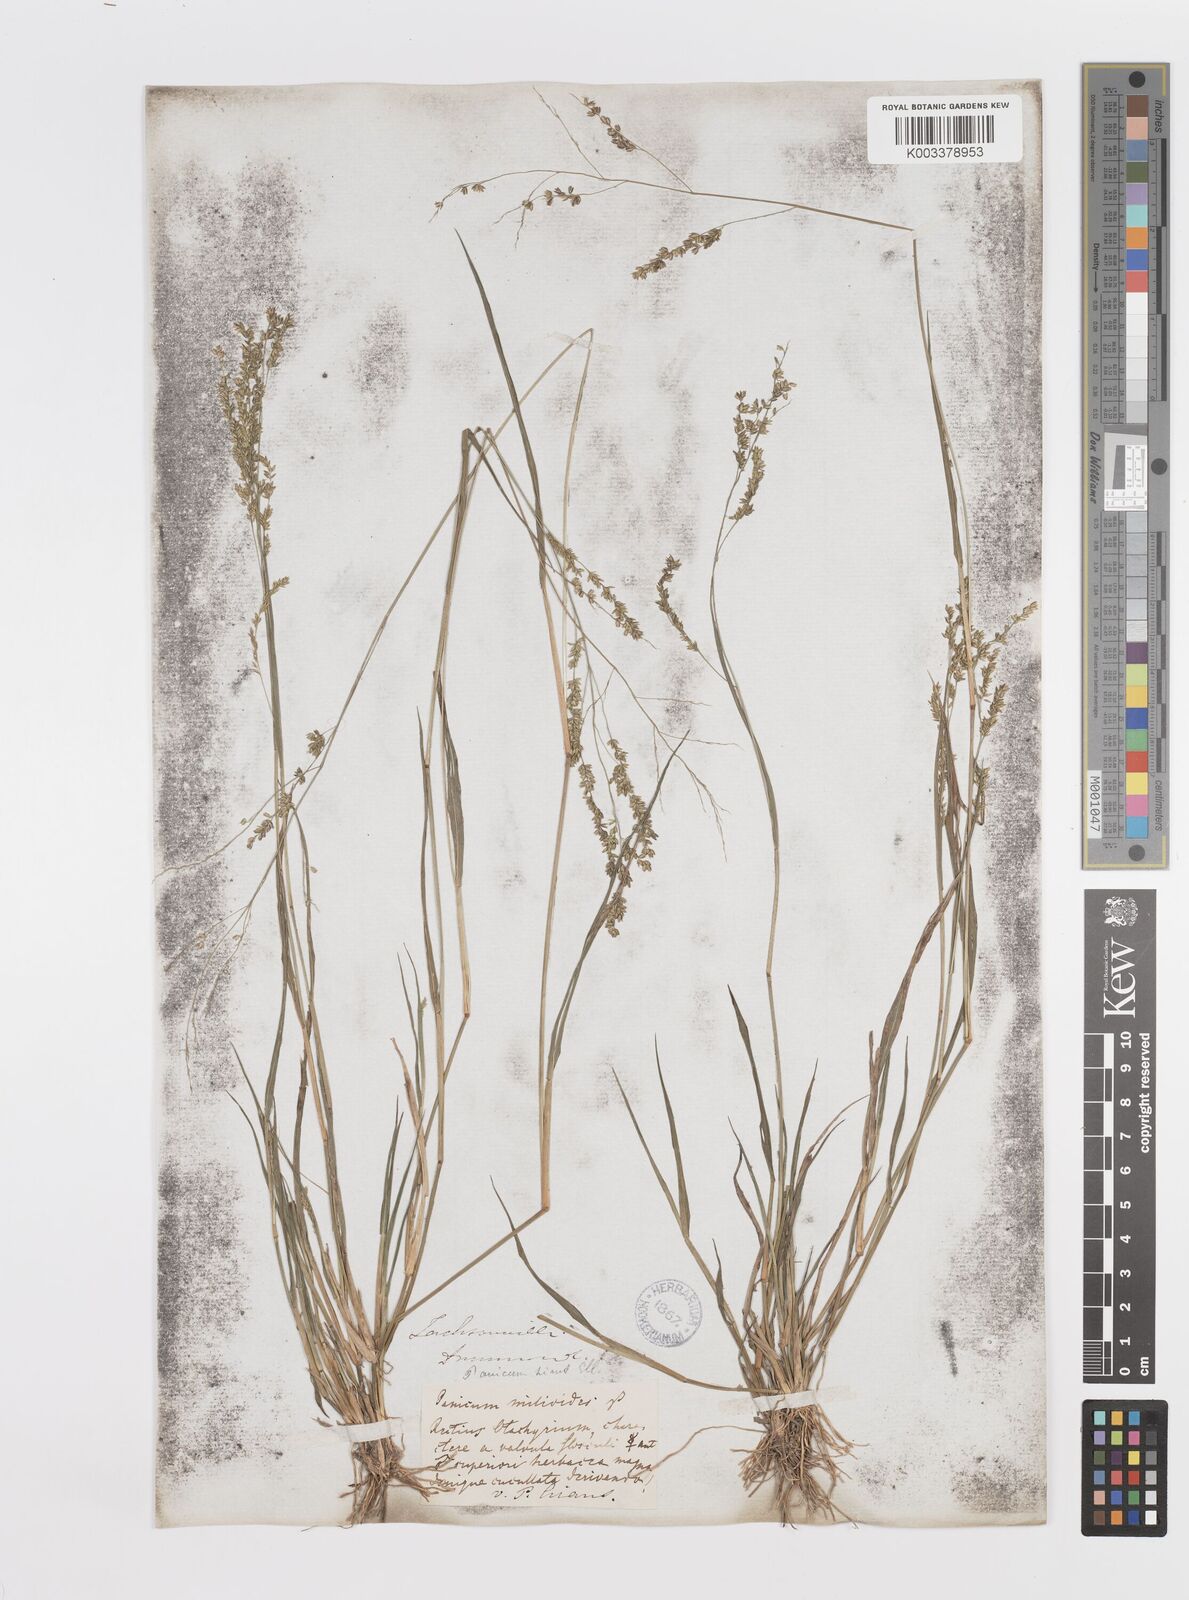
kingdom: Plantae
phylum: Tracheophyta
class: Liliopsida
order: Poales
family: Poaceae
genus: Steinchisma
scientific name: Steinchisma hians
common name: Gaping panic grass
